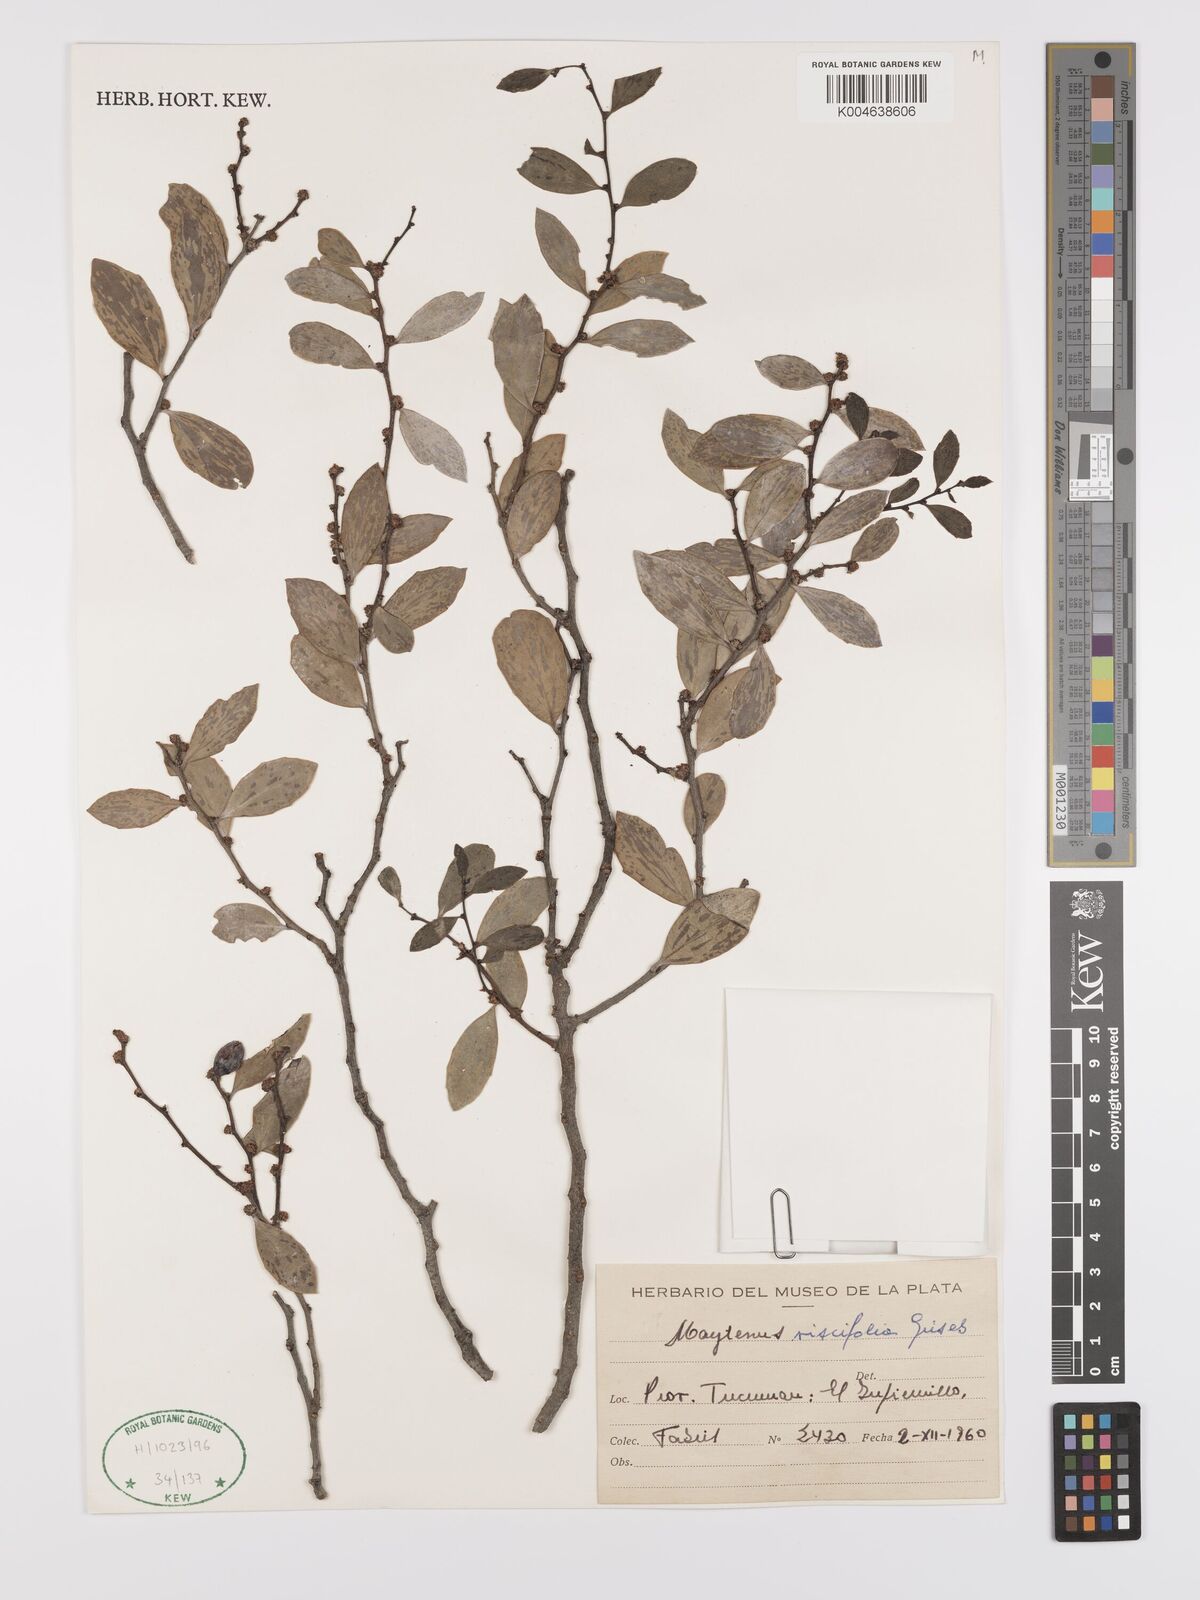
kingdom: Plantae
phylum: Tracheophyta
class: Magnoliopsida
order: Celastrales
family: Celastraceae
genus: Tricerma
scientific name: Tricerma viscifolium
